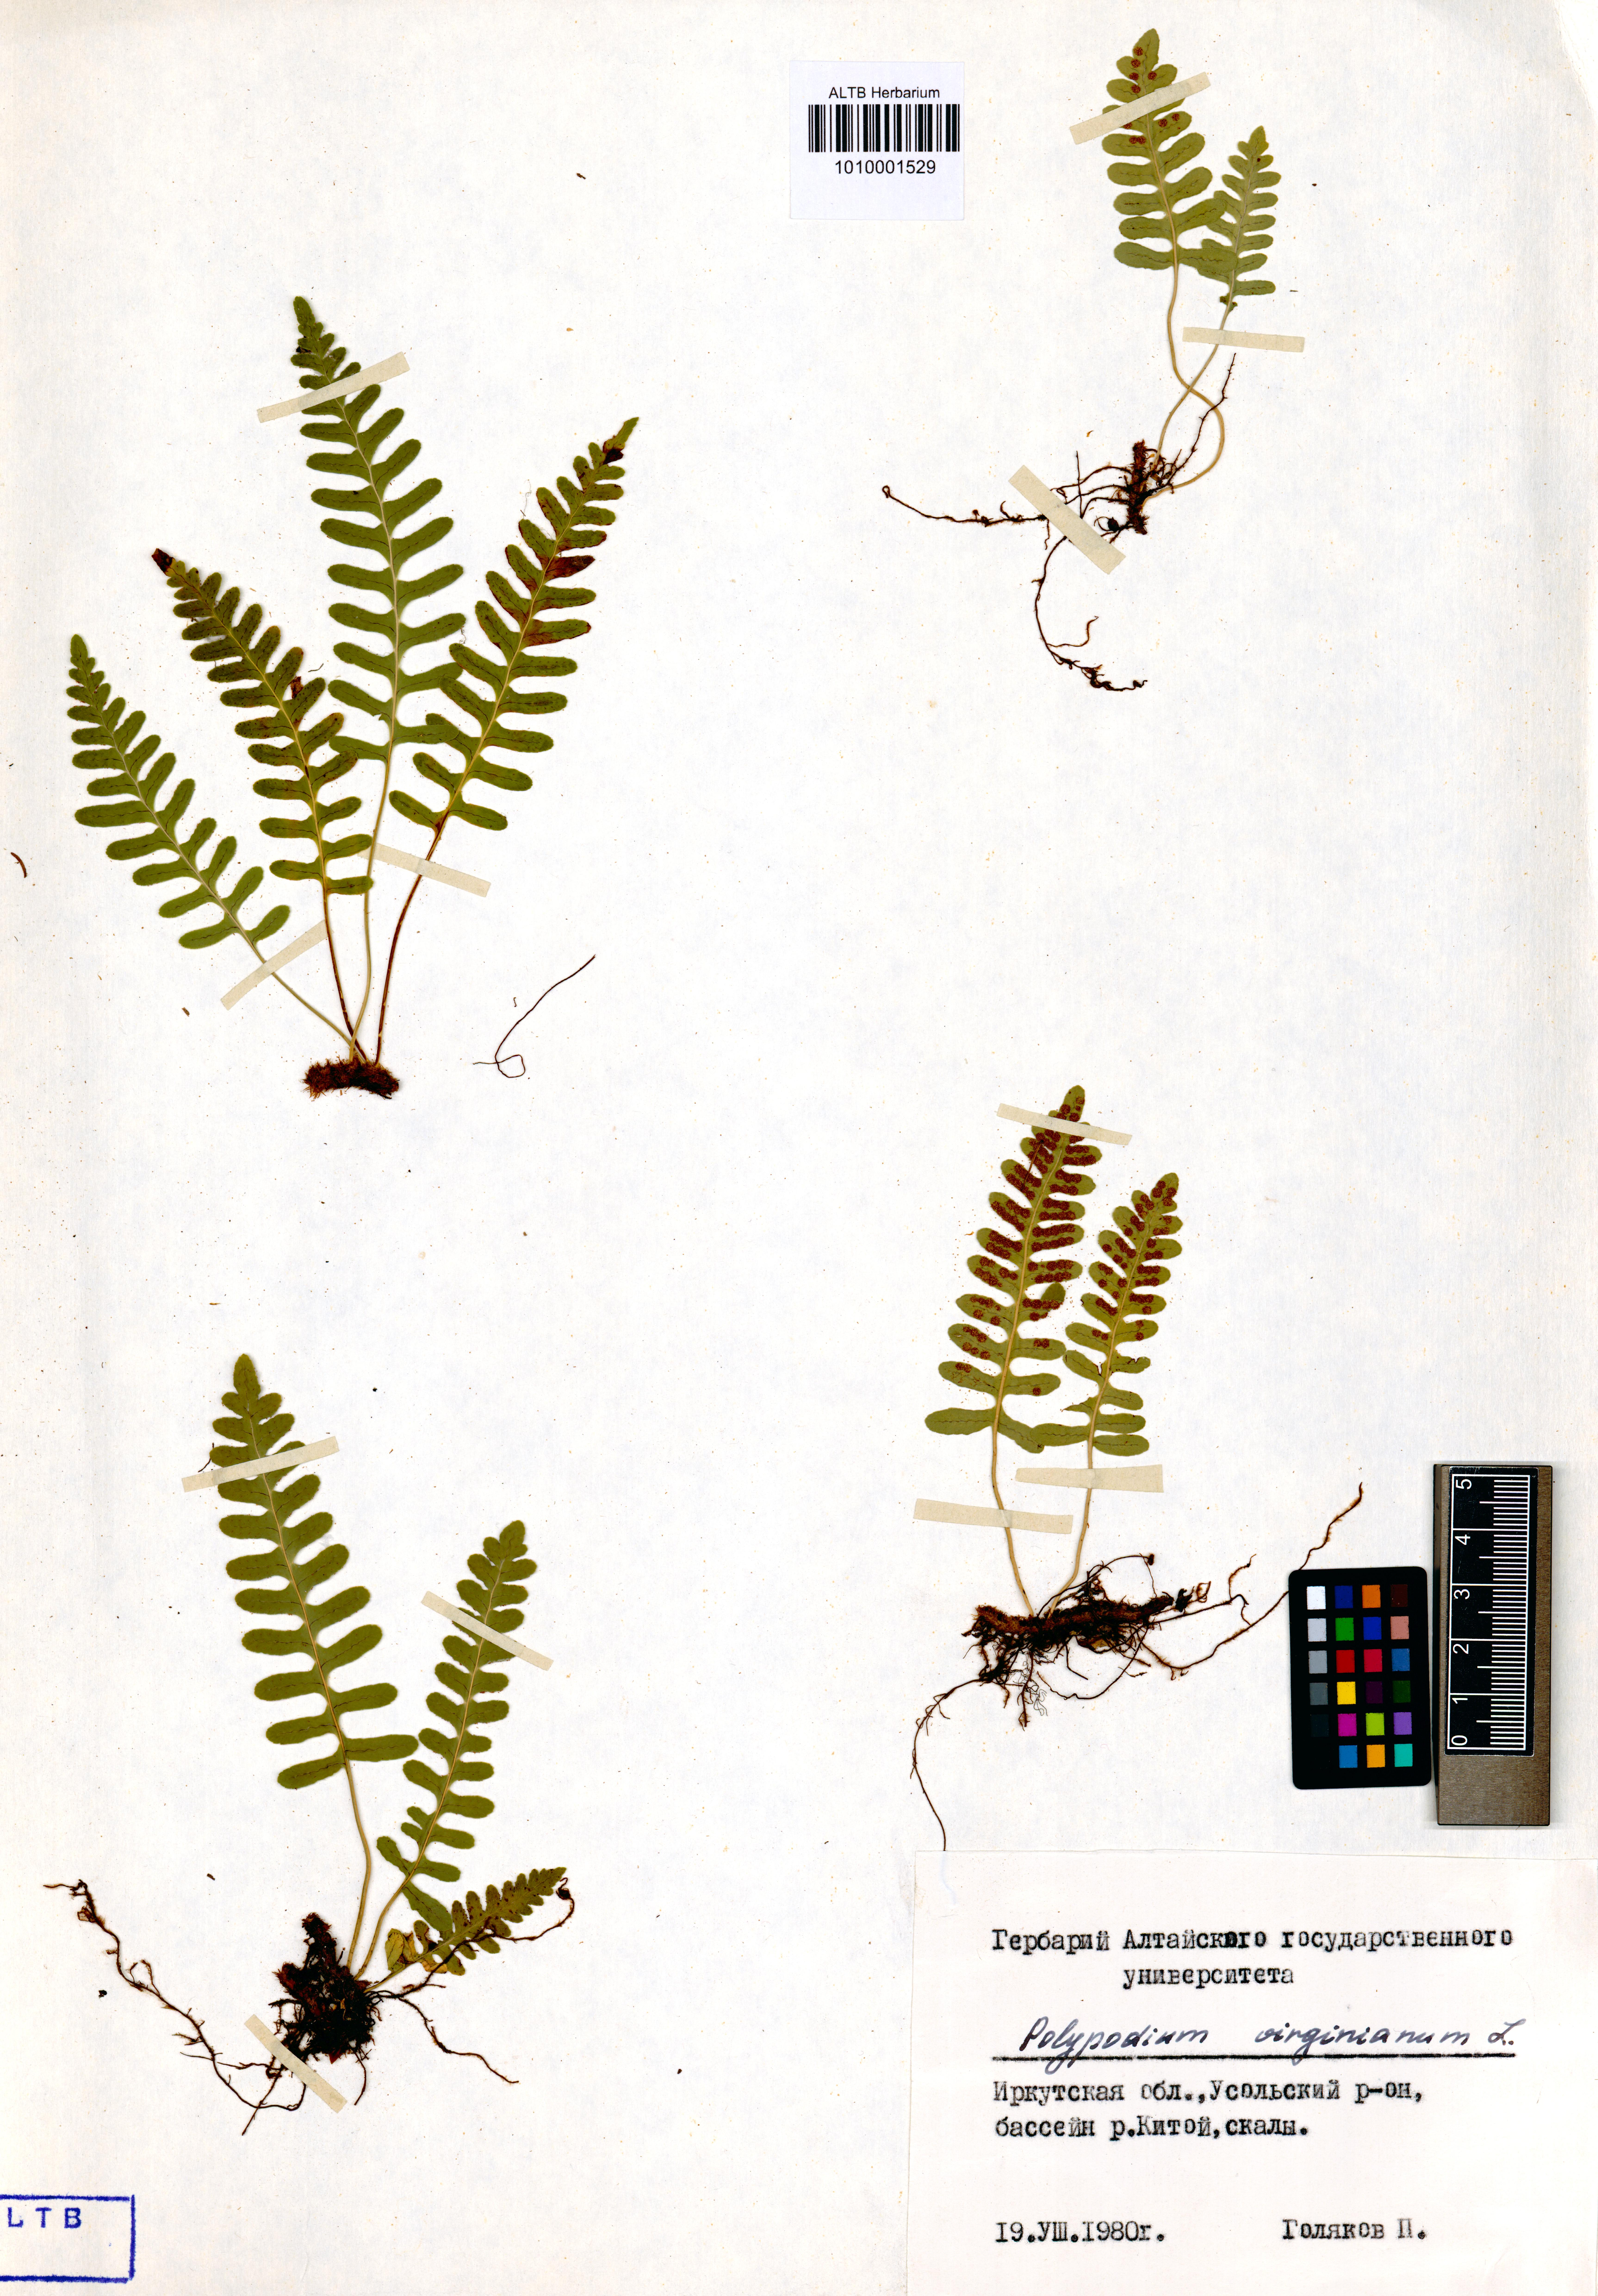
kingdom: Plantae
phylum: Tracheophyta
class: Polypodiopsida
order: Polypodiales
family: Polypodiaceae
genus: Polypodium
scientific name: Polypodium virginianum
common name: American wall fern
